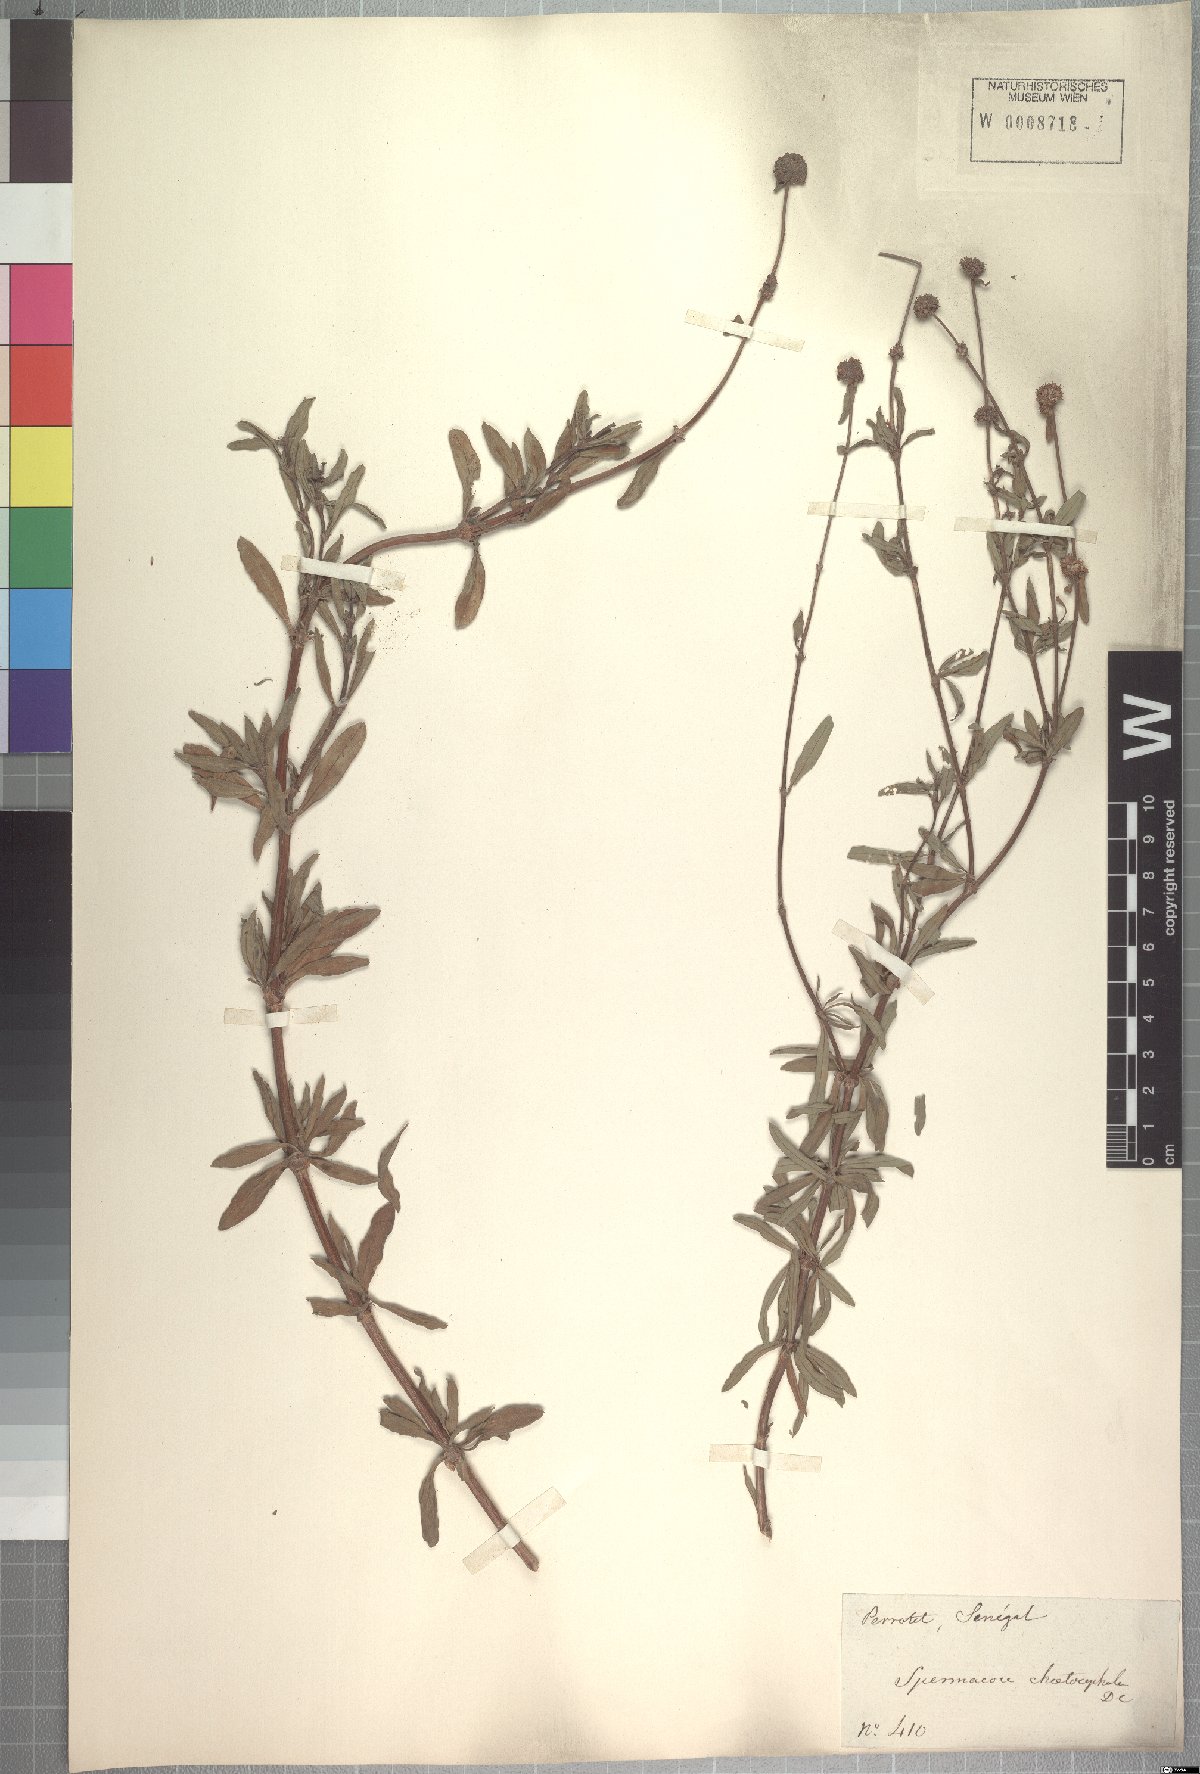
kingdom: Plantae
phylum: Tracheophyta
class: Magnoliopsida
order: Gentianales
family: Rubiaceae
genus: Spermacoce
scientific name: Spermacoce chaetocephala
